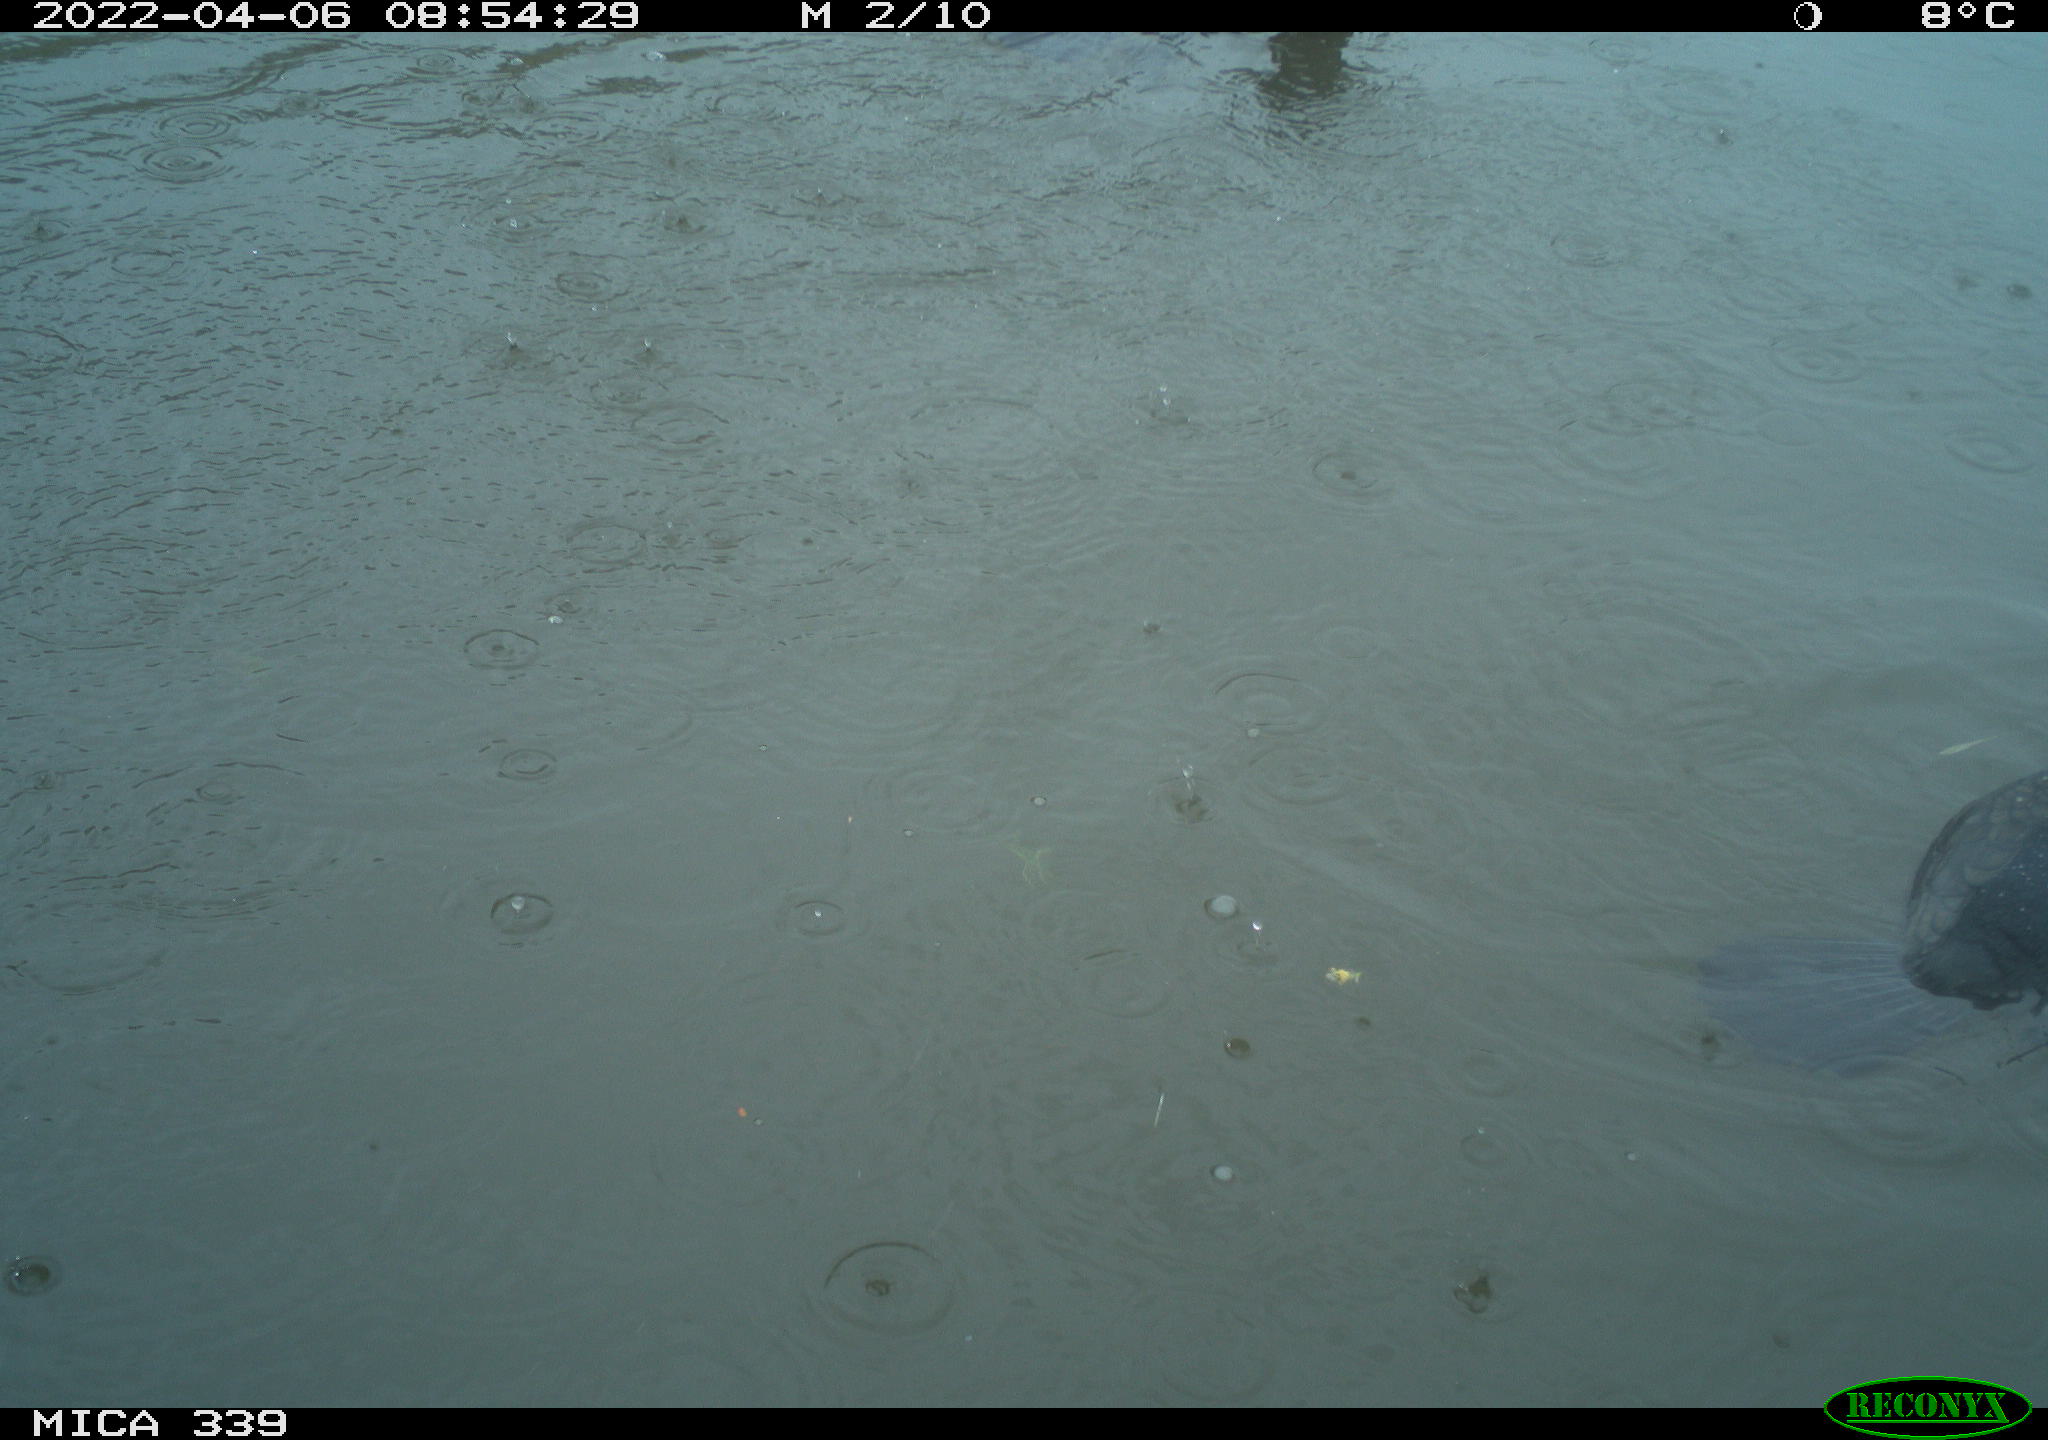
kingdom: Animalia
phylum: Chordata
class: Aves
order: Suliformes
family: Phalacrocoracidae
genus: Phalacrocorax
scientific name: Phalacrocorax carbo
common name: Great cormorant
